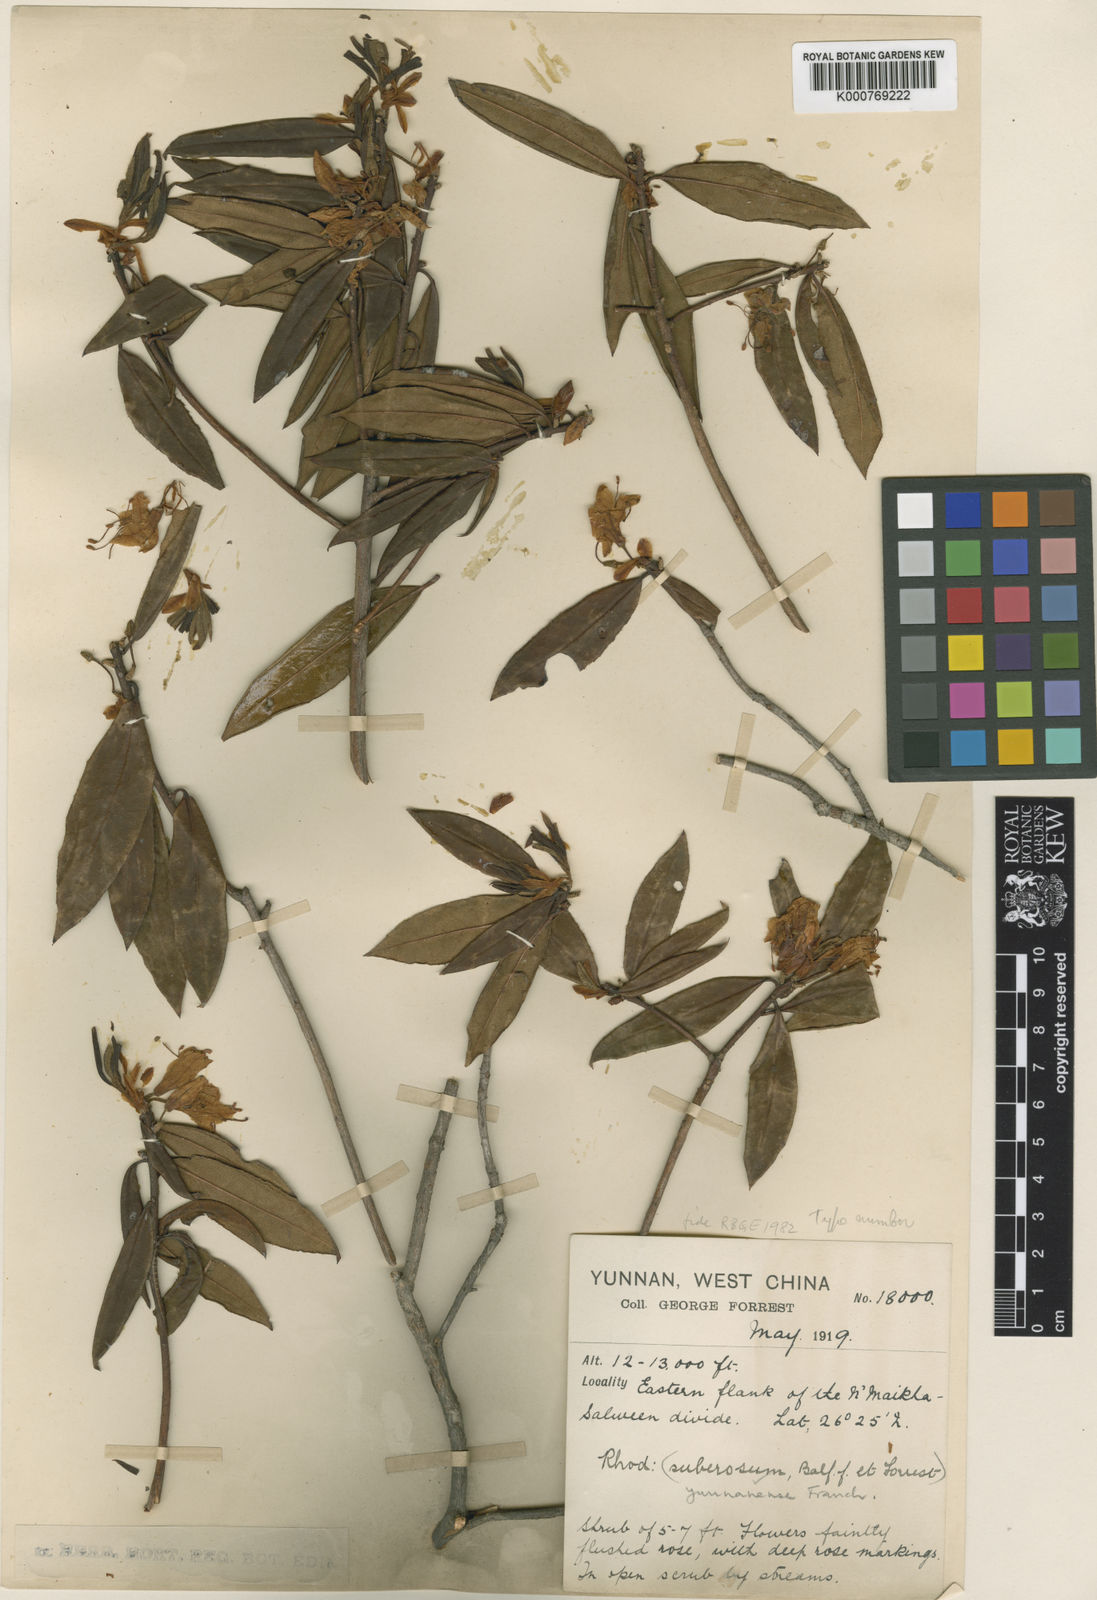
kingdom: Plantae
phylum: Tracheophyta
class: Magnoliopsida
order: Ericales
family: Ericaceae
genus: Rhododendron
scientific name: Rhododendron yunnanense
